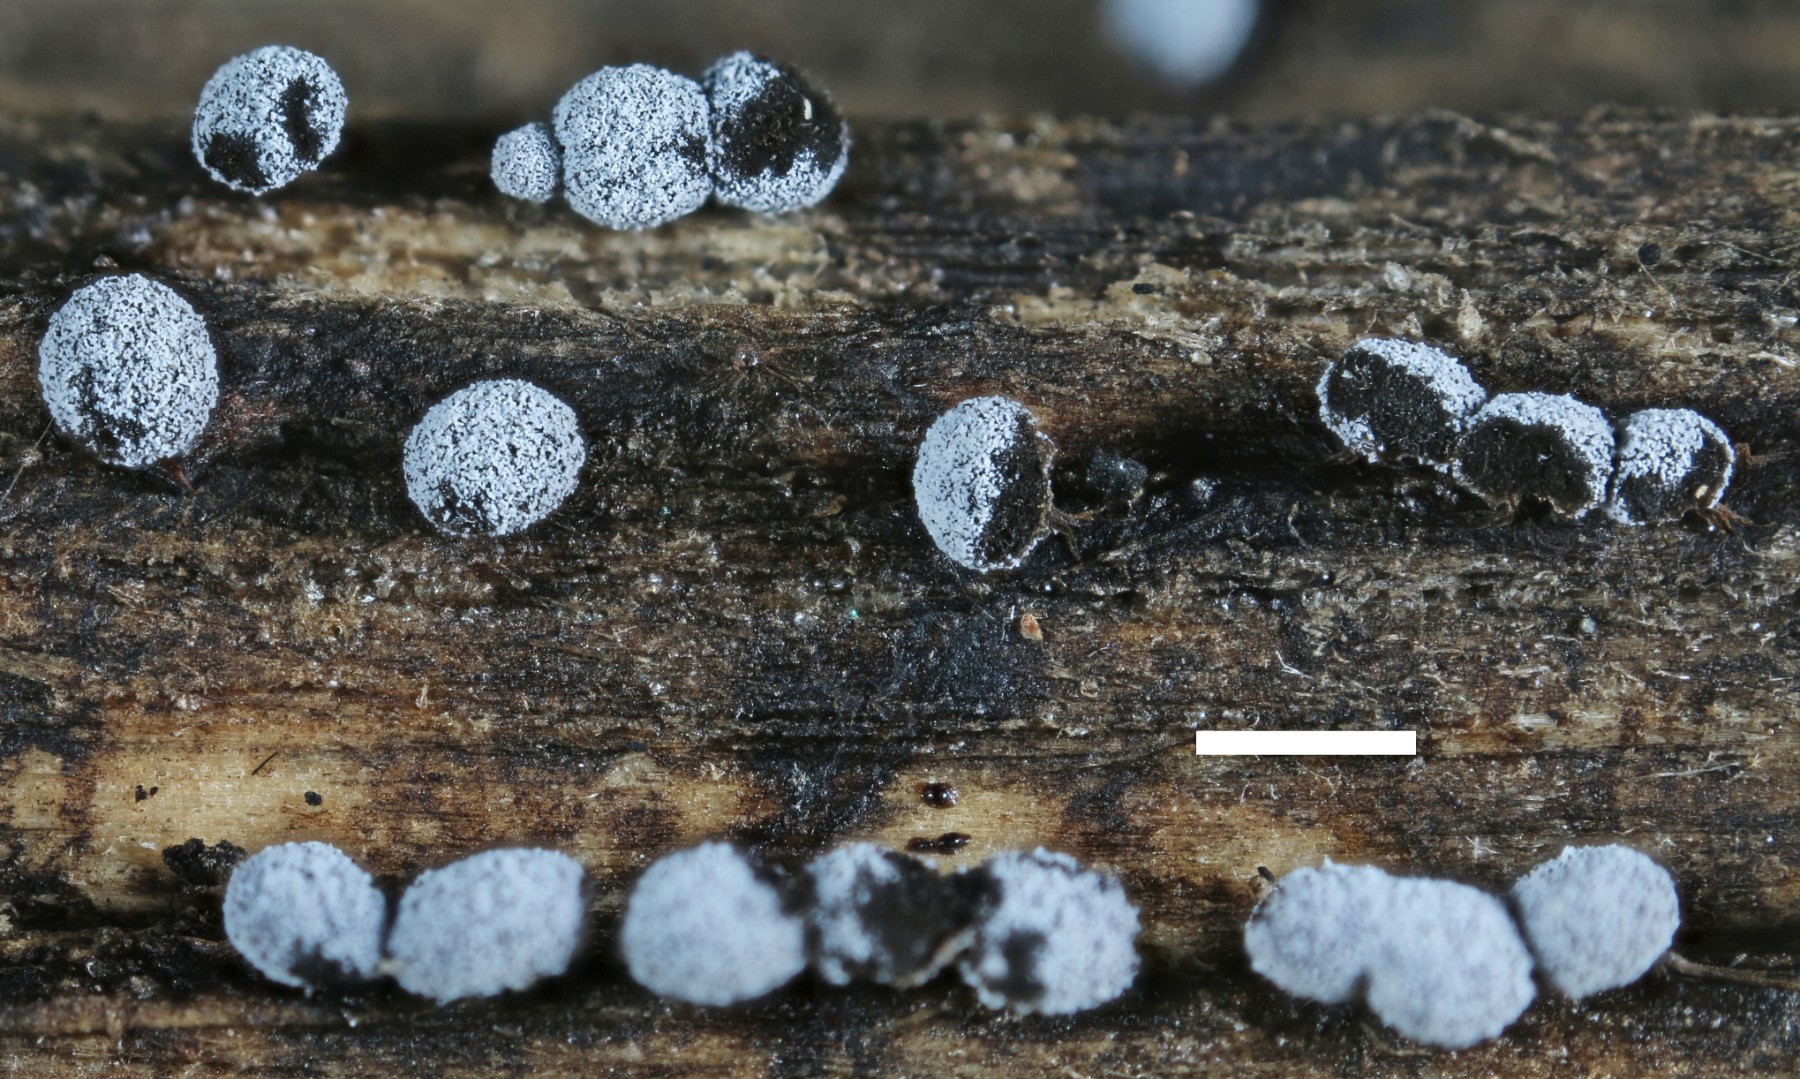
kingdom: Protozoa
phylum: Mycetozoa
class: Myxomycetes
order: Physarales
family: Didymiaceae
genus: Didymium
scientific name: Didymium melanospermum
